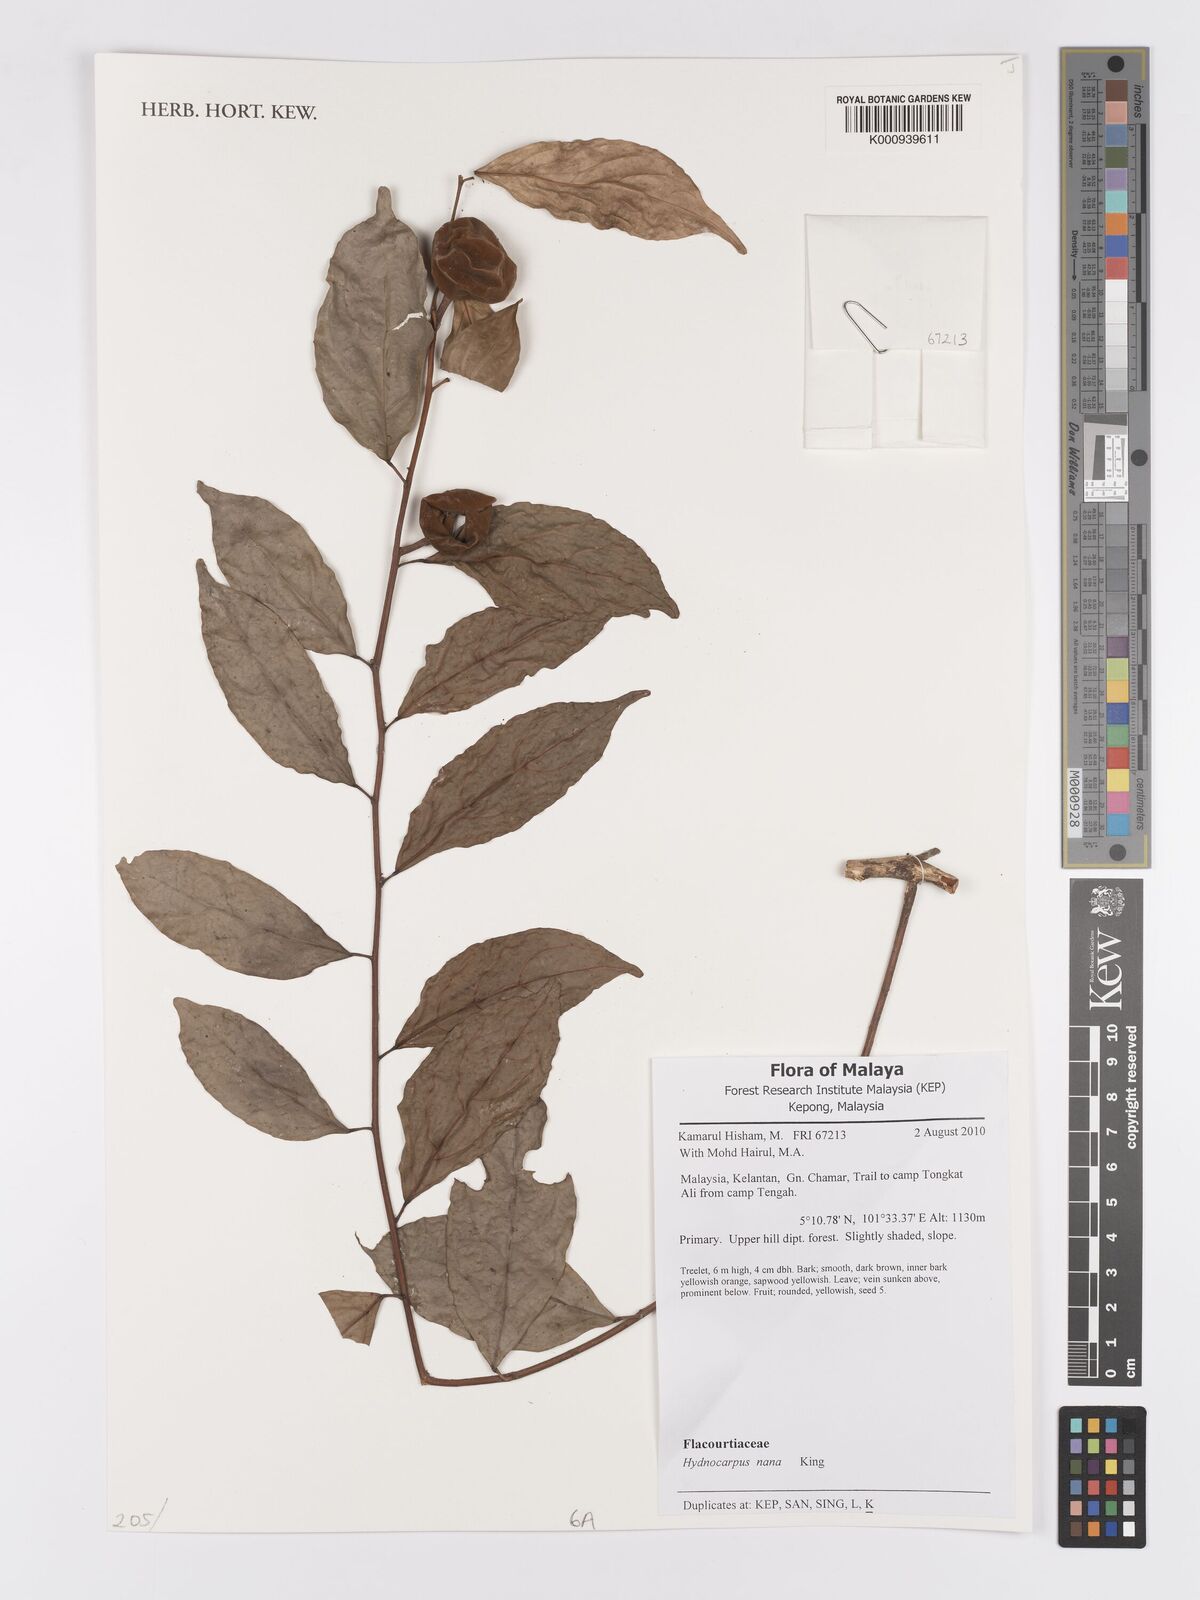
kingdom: Plantae
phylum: Tracheophyta
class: Magnoliopsida
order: Malpighiales
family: Achariaceae
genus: Hydnocarpus
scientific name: Hydnocarpus nanus
